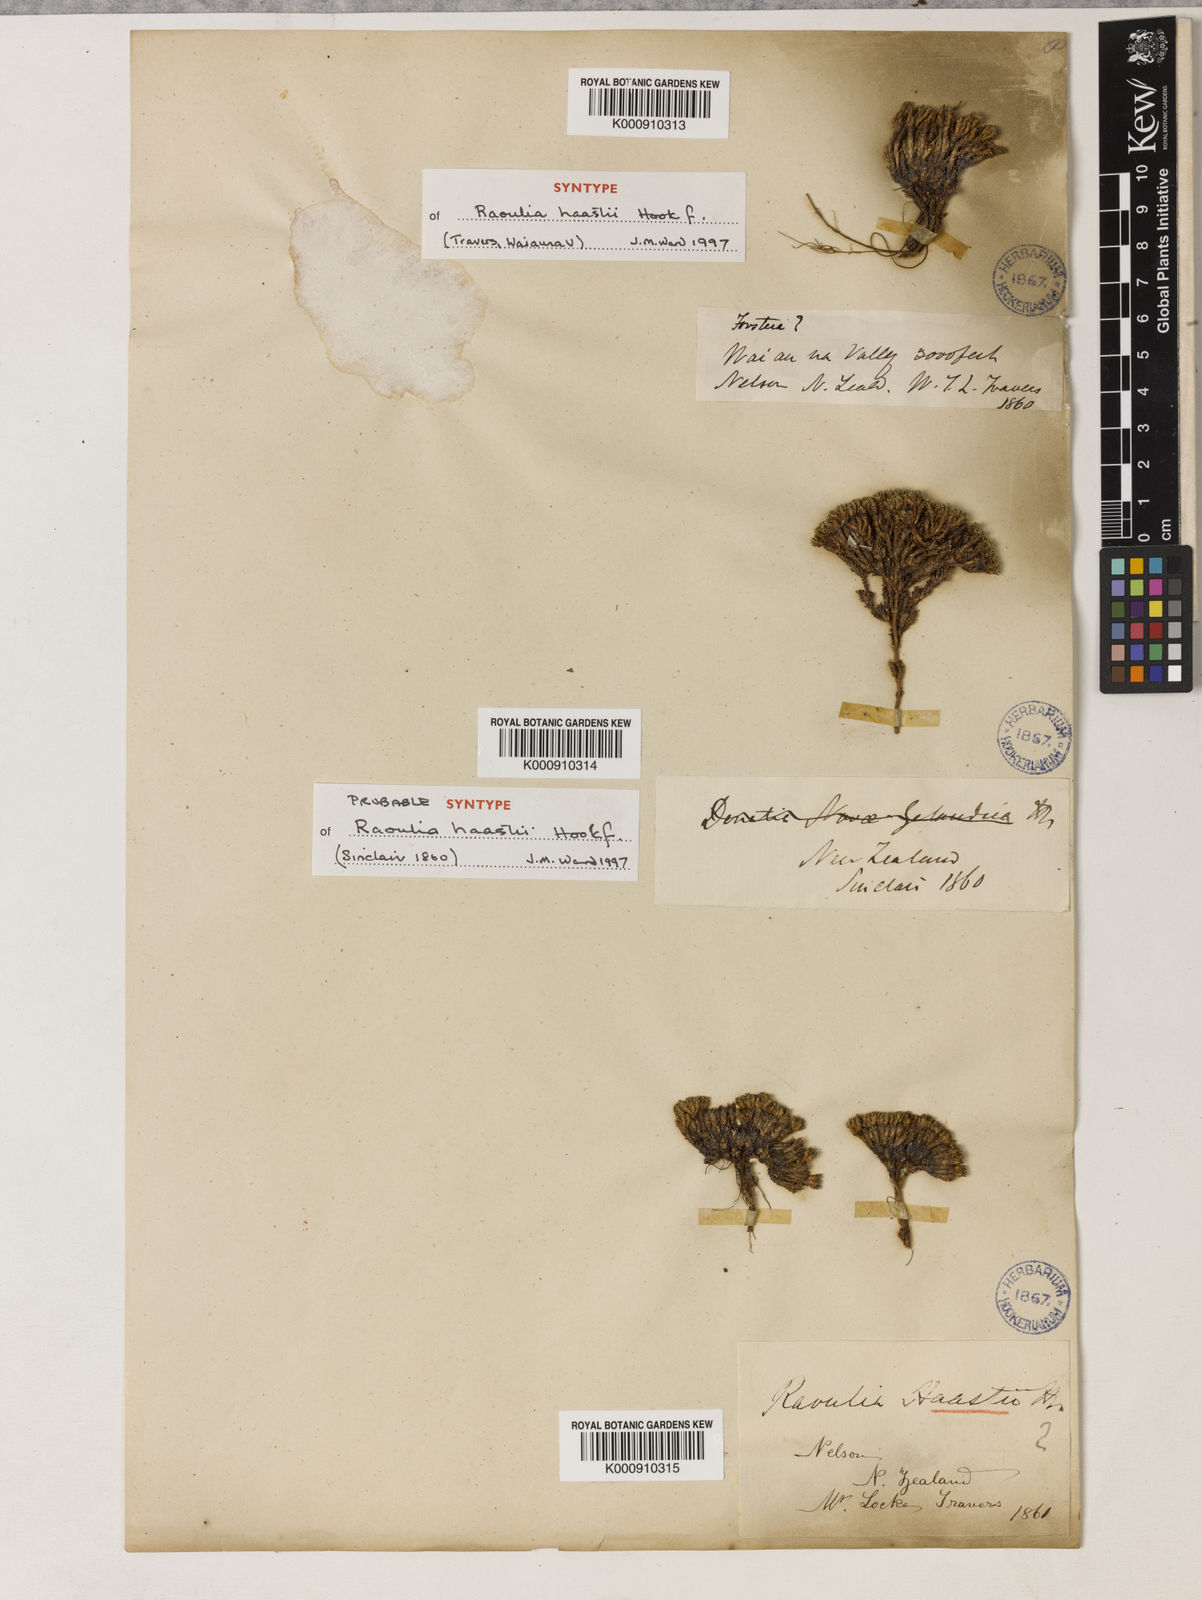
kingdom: Plantae
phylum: Tracheophyta
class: Magnoliopsida
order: Asterales
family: Asteraceae
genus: Raoulia
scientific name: Raoulia haastii
